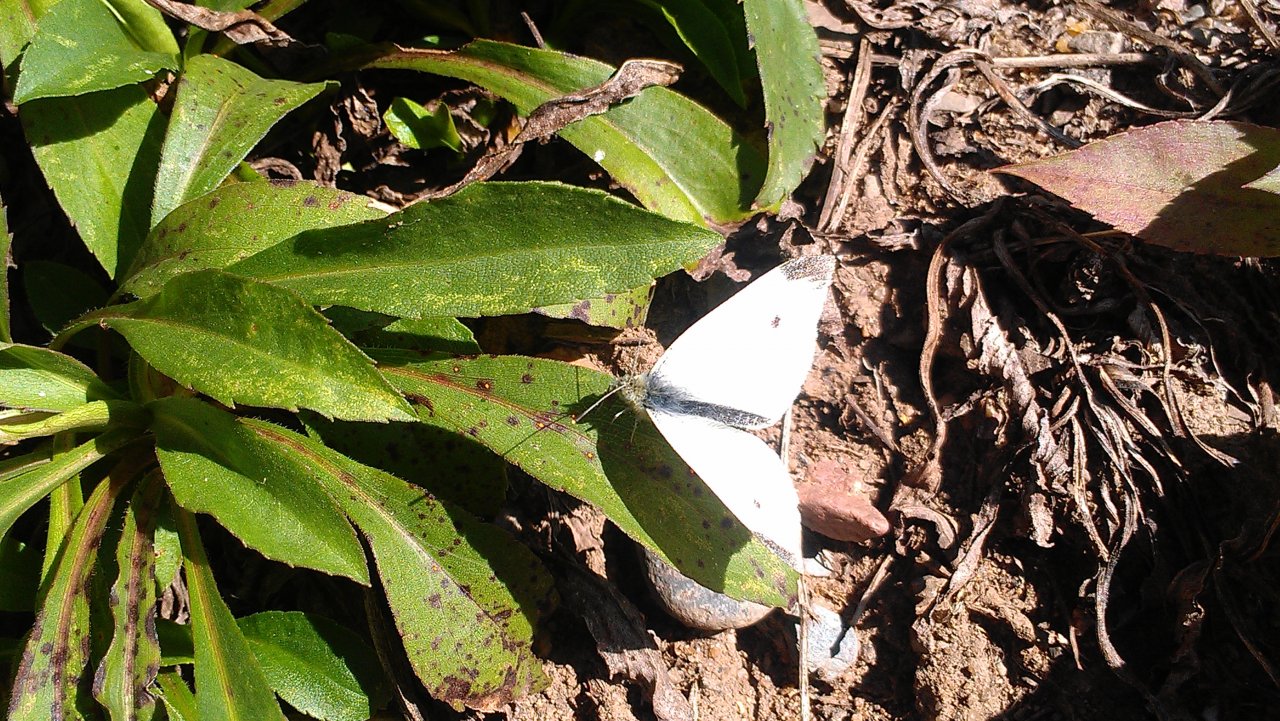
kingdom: Animalia
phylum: Arthropoda
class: Insecta
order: Lepidoptera
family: Pieridae
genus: Pieris
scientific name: Pieris rapae
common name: Cabbage White
